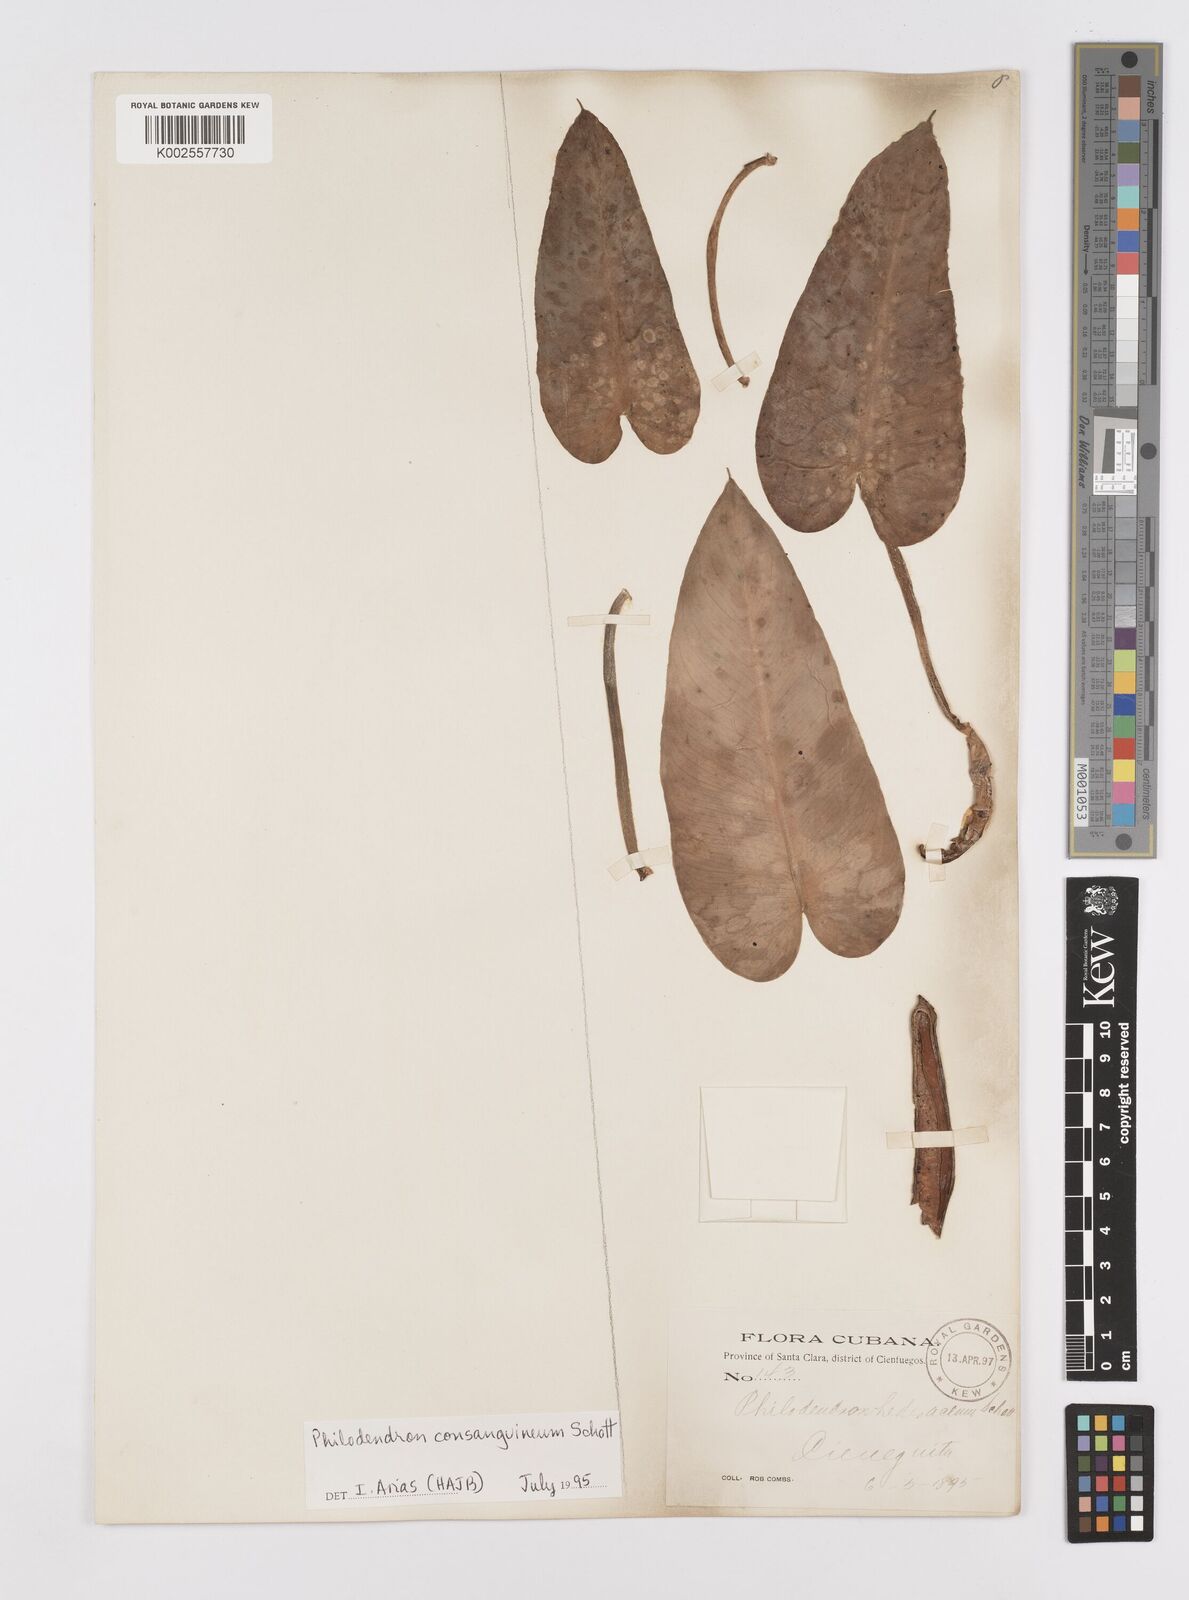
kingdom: Plantae
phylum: Tracheophyta
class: Liliopsida
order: Alismatales
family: Araceae
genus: Philodendron
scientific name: Philodendron consanguineum
